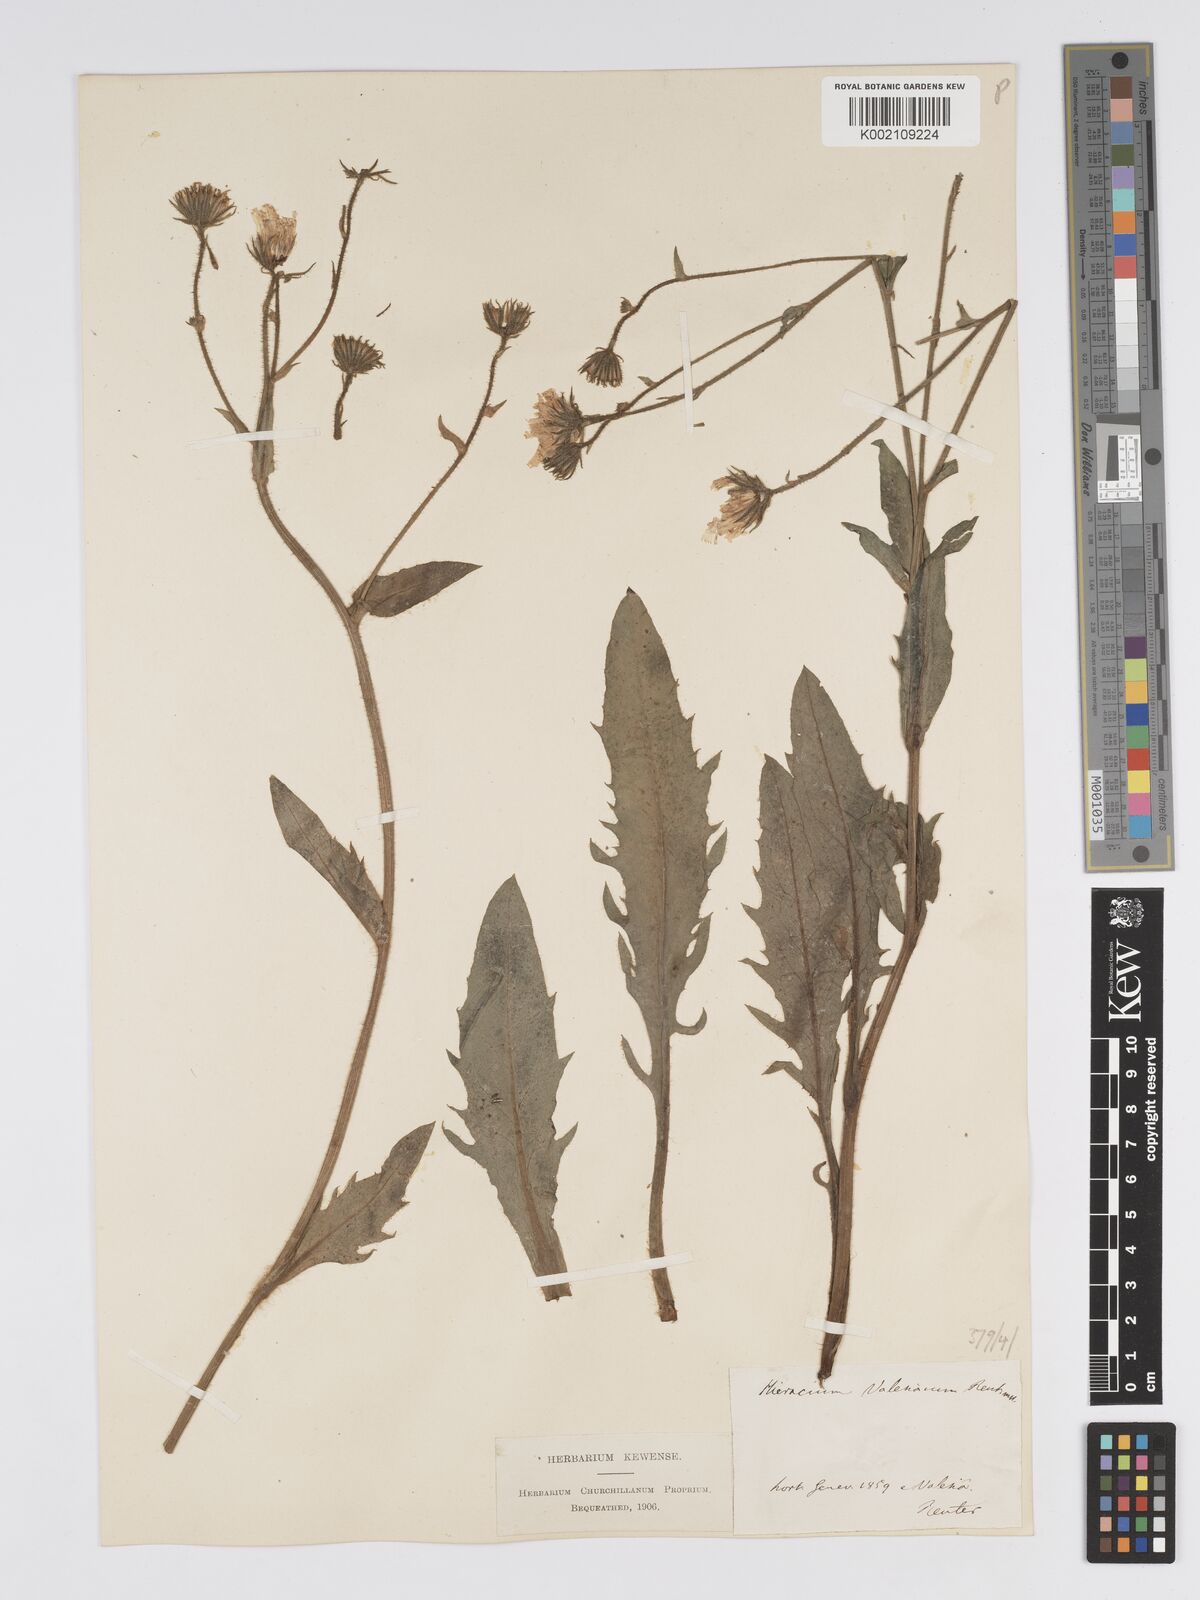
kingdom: Plantae
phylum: Tracheophyta
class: Magnoliopsida
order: Asterales
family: Asteraceae
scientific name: Asteraceae
